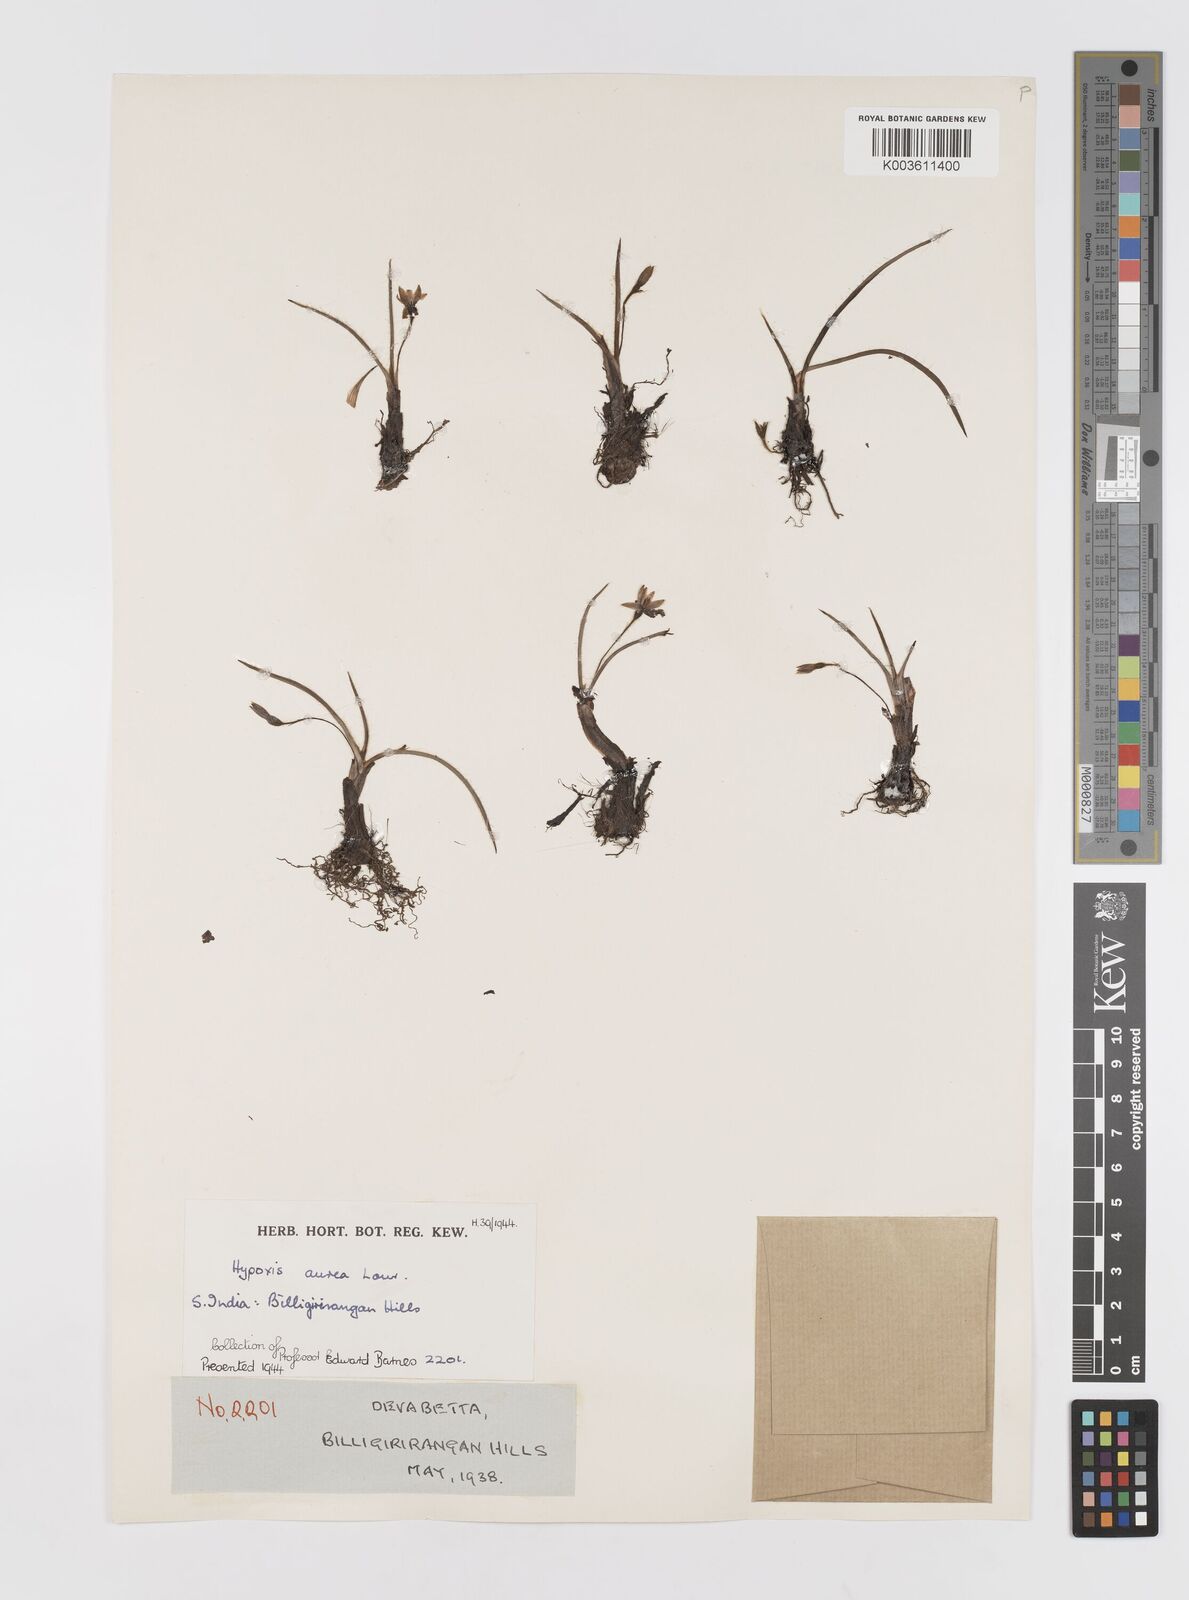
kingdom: Plantae
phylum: Tracheophyta
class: Liliopsida
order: Asparagales
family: Hypoxidaceae
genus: Hypoxis
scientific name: Hypoxis aurea
